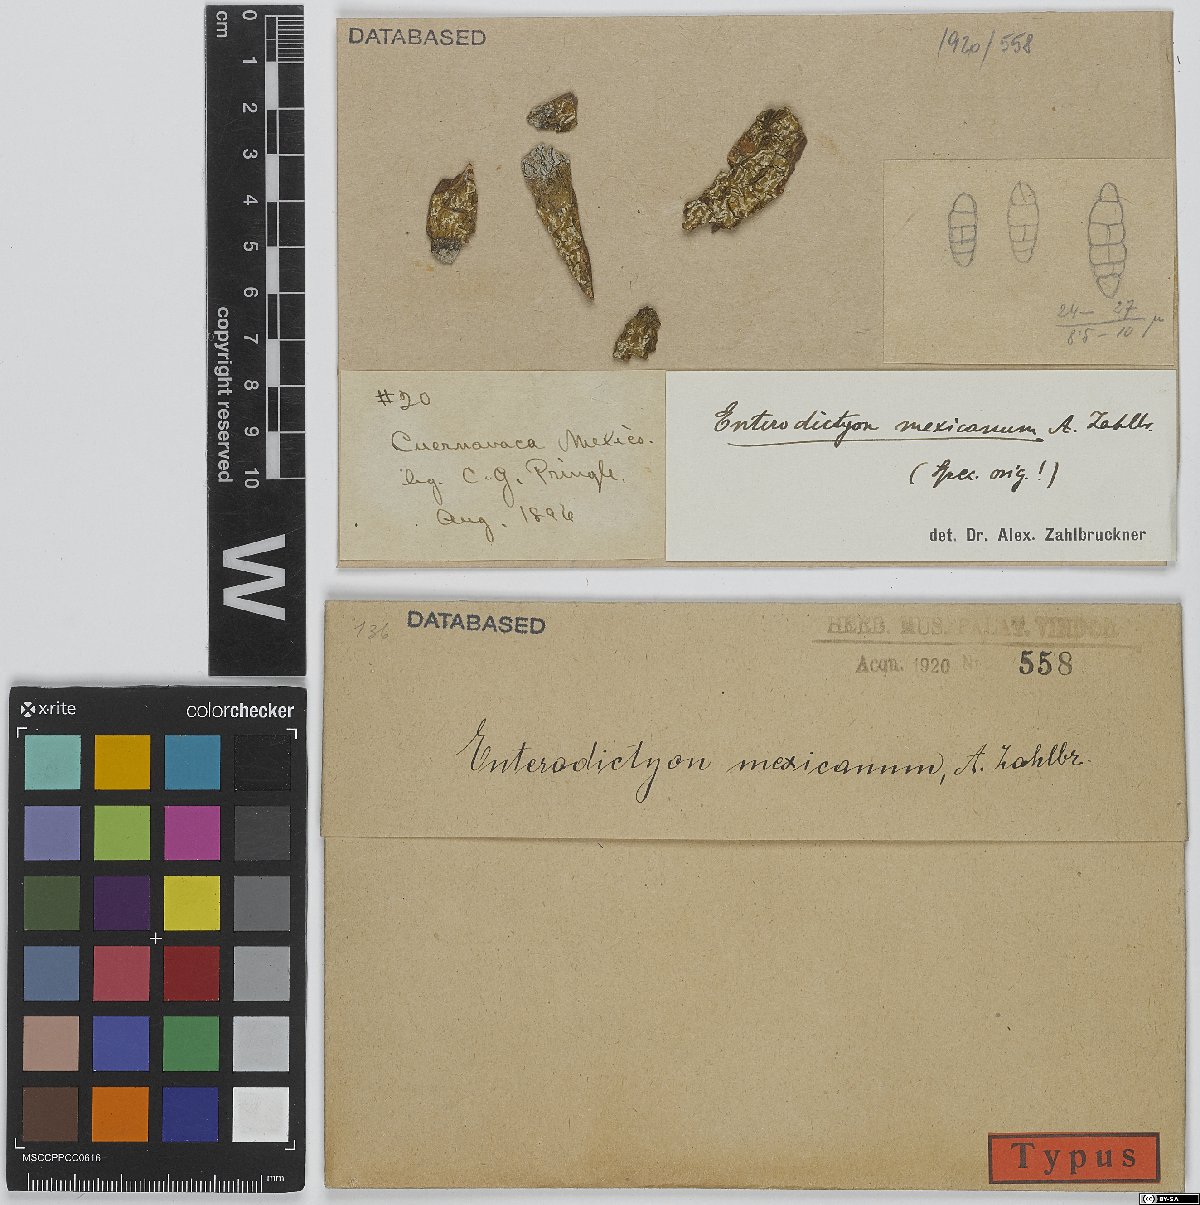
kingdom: Fungi
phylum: Ascomycota
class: Lecanoromycetes
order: Ostropales
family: Graphidaceae
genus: Fissurina
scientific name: Fissurina mexicana
